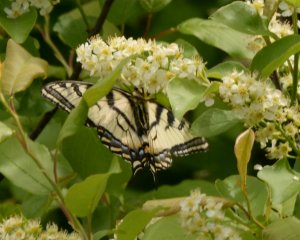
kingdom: Animalia
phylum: Arthropoda
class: Insecta
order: Lepidoptera
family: Papilionidae
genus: Pterourus
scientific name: Pterourus canadensis
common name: Canadian Tiger Swallowtail
